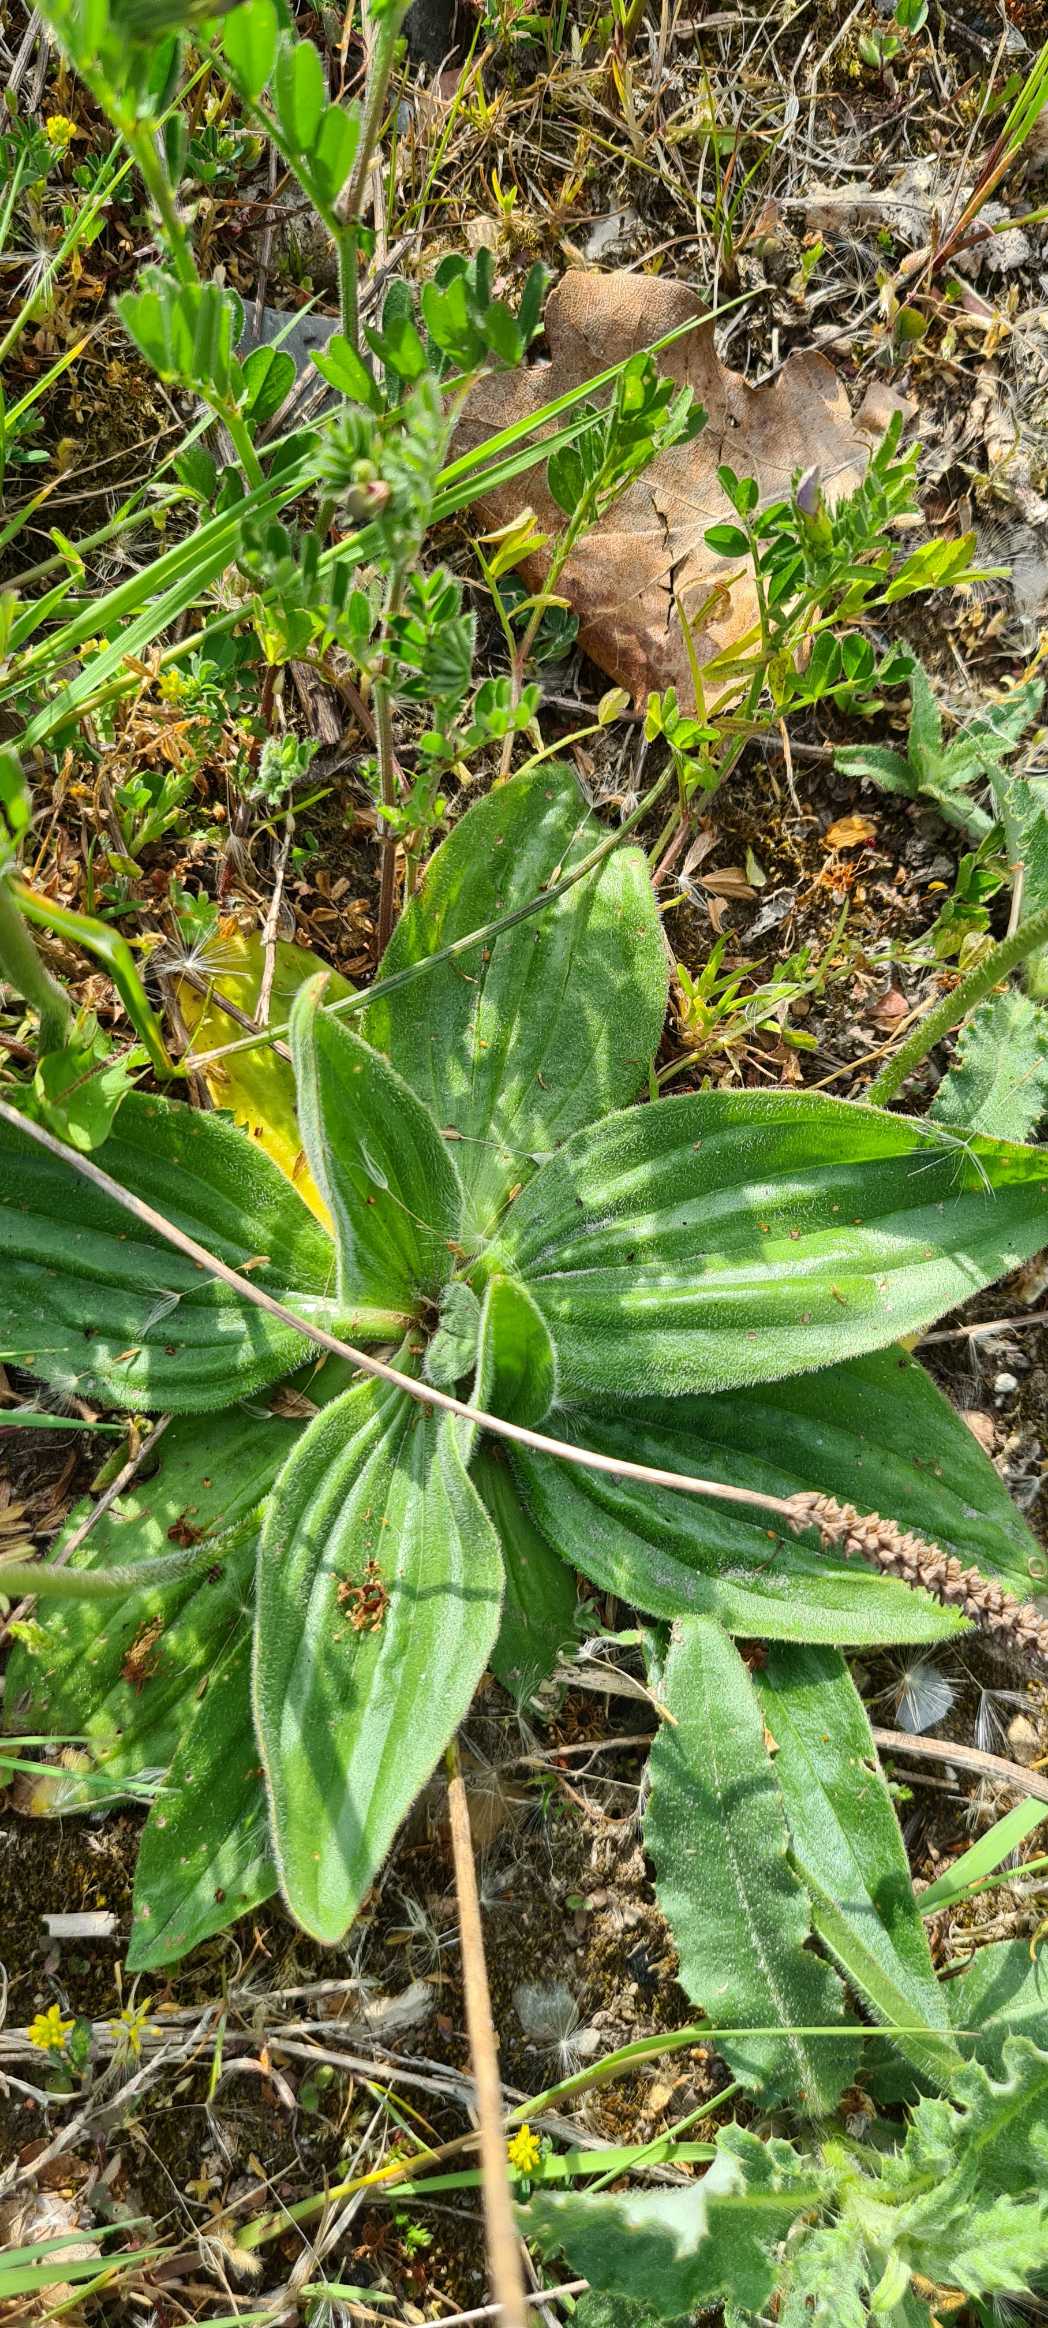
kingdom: Plantae
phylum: Tracheophyta
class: Magnoliopsida
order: Lamiales
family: Plantaginaceae
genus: Plantago
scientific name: Plantago media
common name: Dunet vejbred
